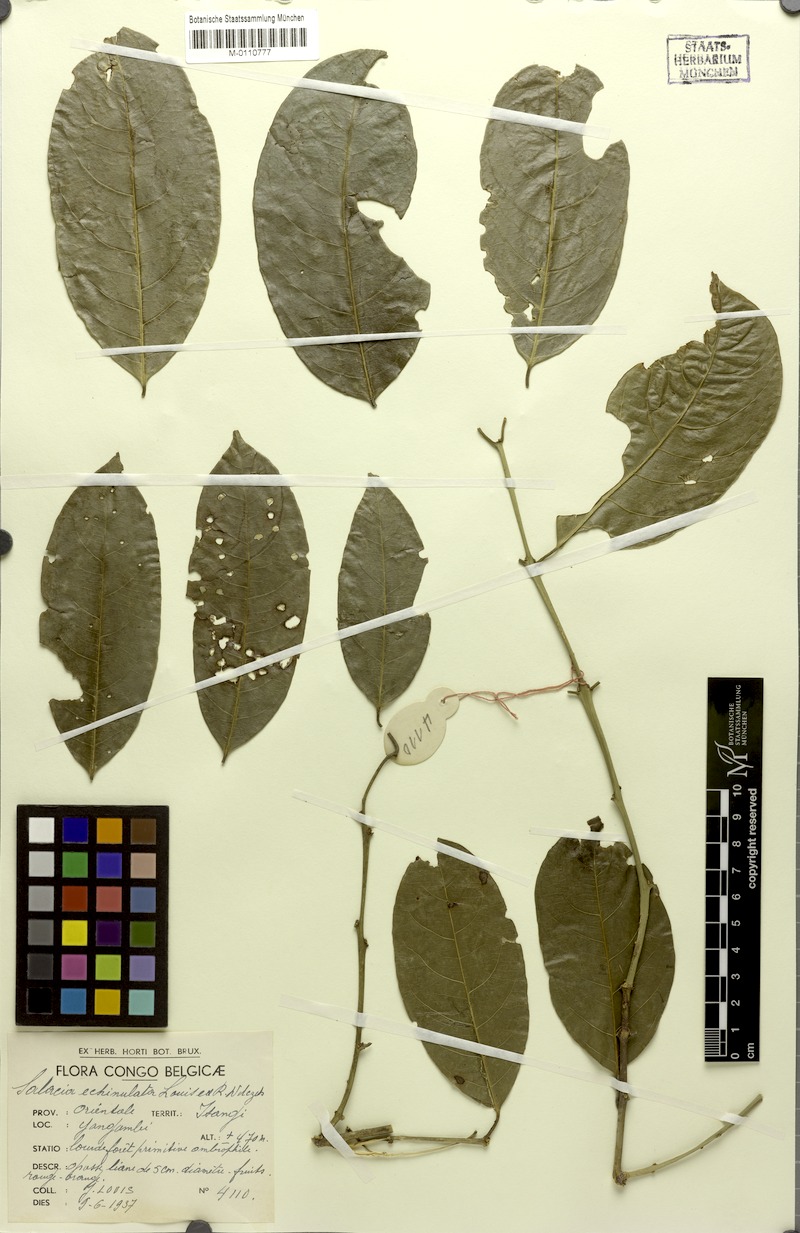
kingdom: Plantae
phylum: Tracheophyta
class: Magnoliopsida
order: Celastrales
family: Celastraceae
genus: Salacia
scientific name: Salacia adolfi-friderici
